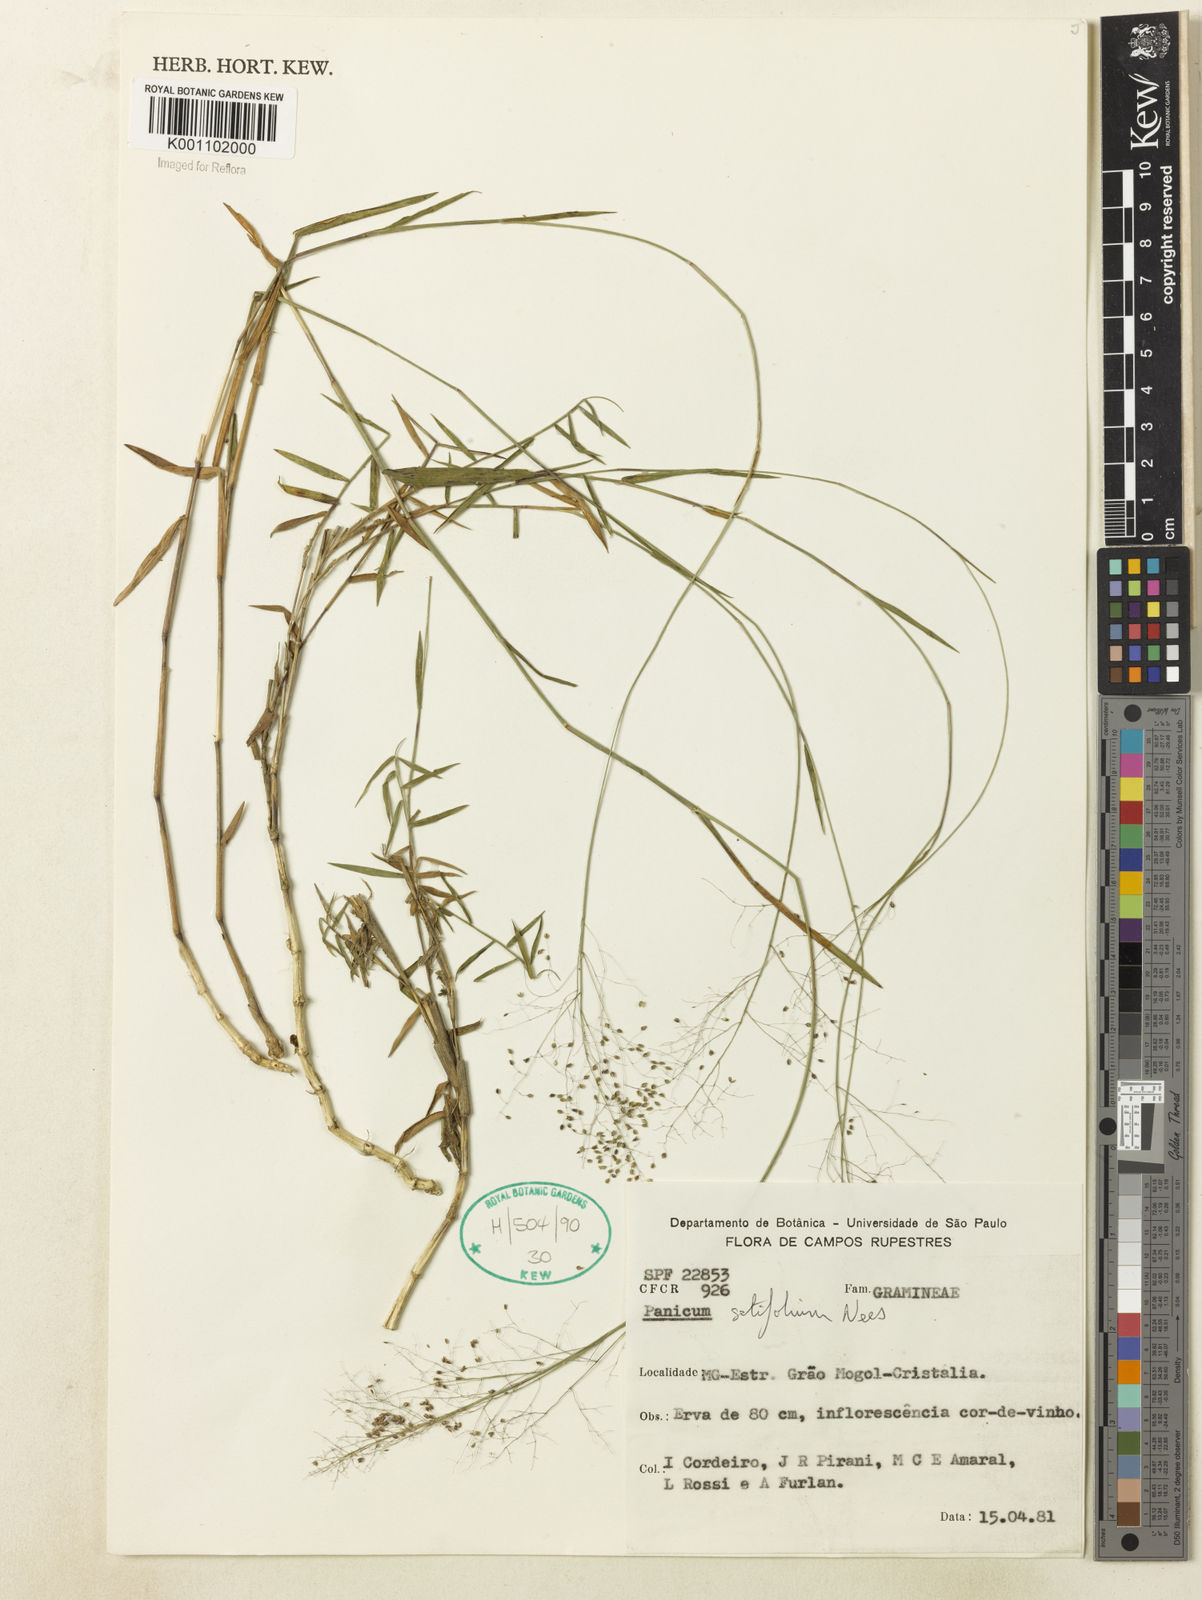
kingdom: Plantae
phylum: Tracheophyta
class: Liliopsida
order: Poales
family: Poaceae
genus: Panicum
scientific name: Panicum rupestre
